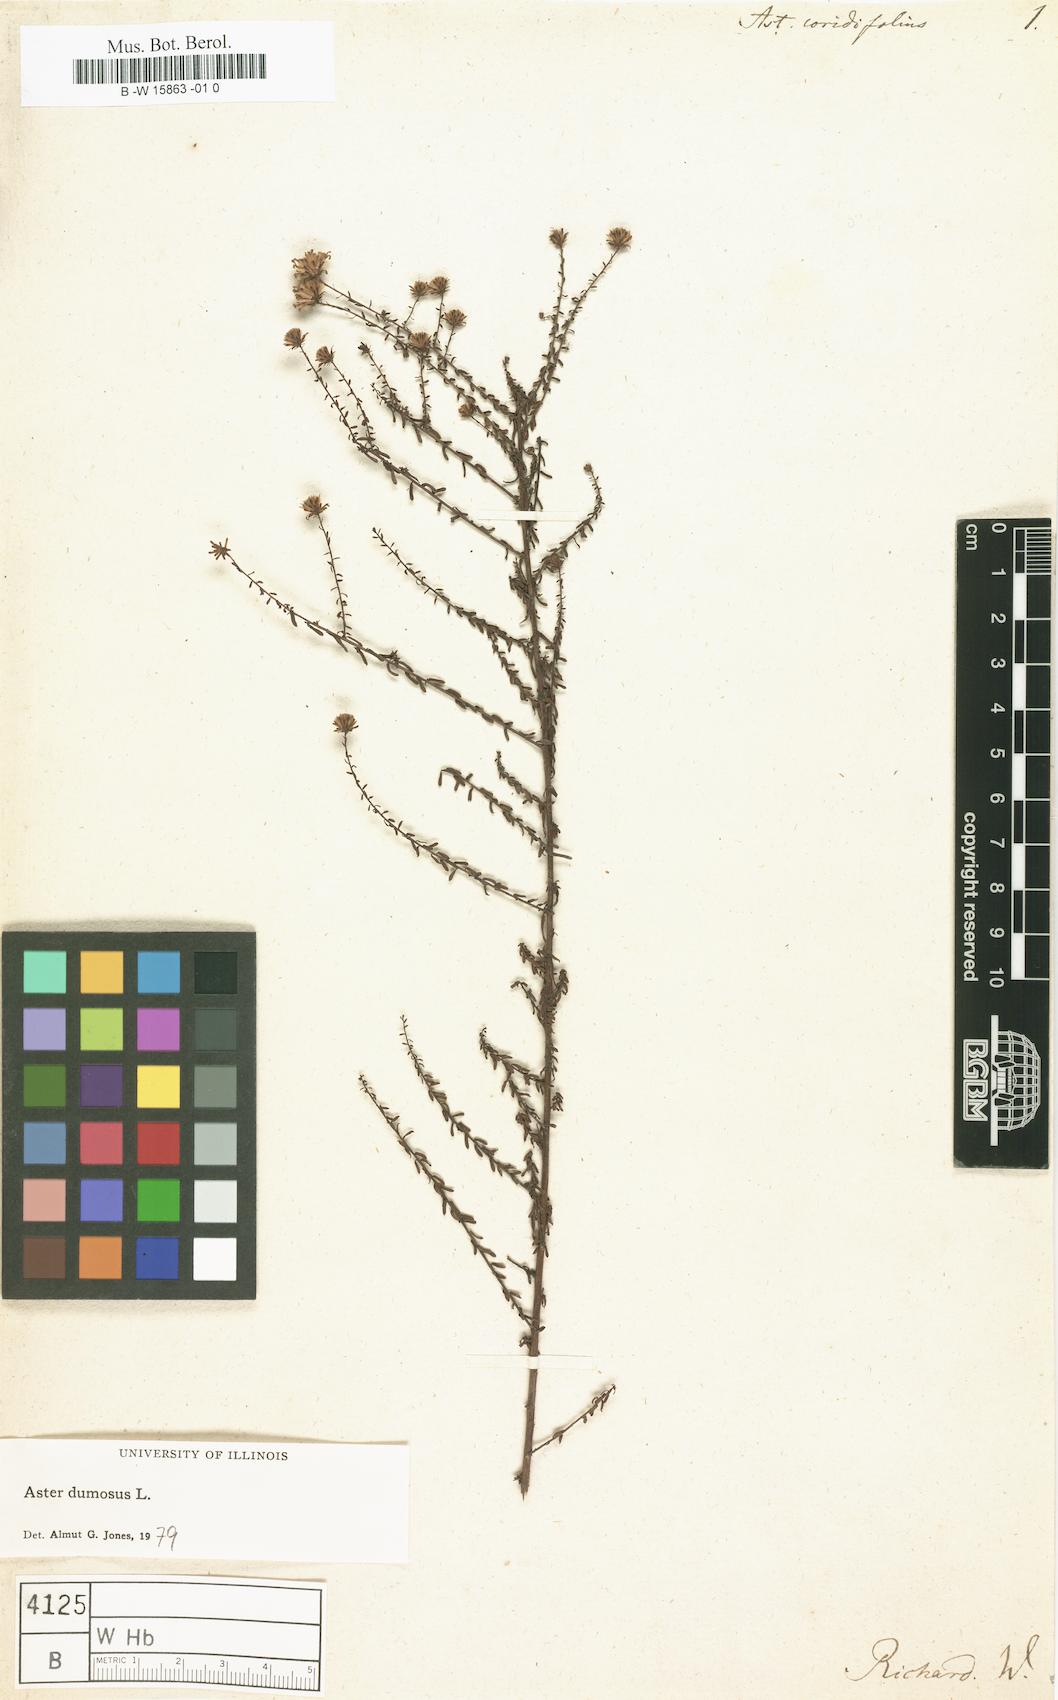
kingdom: Plantae
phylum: Tracheophyta
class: Magnoliopsida
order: Asterales
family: Asteraceae
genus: Symphyotrichum
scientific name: Symphyotrichum dumosum
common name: Bushy aster
